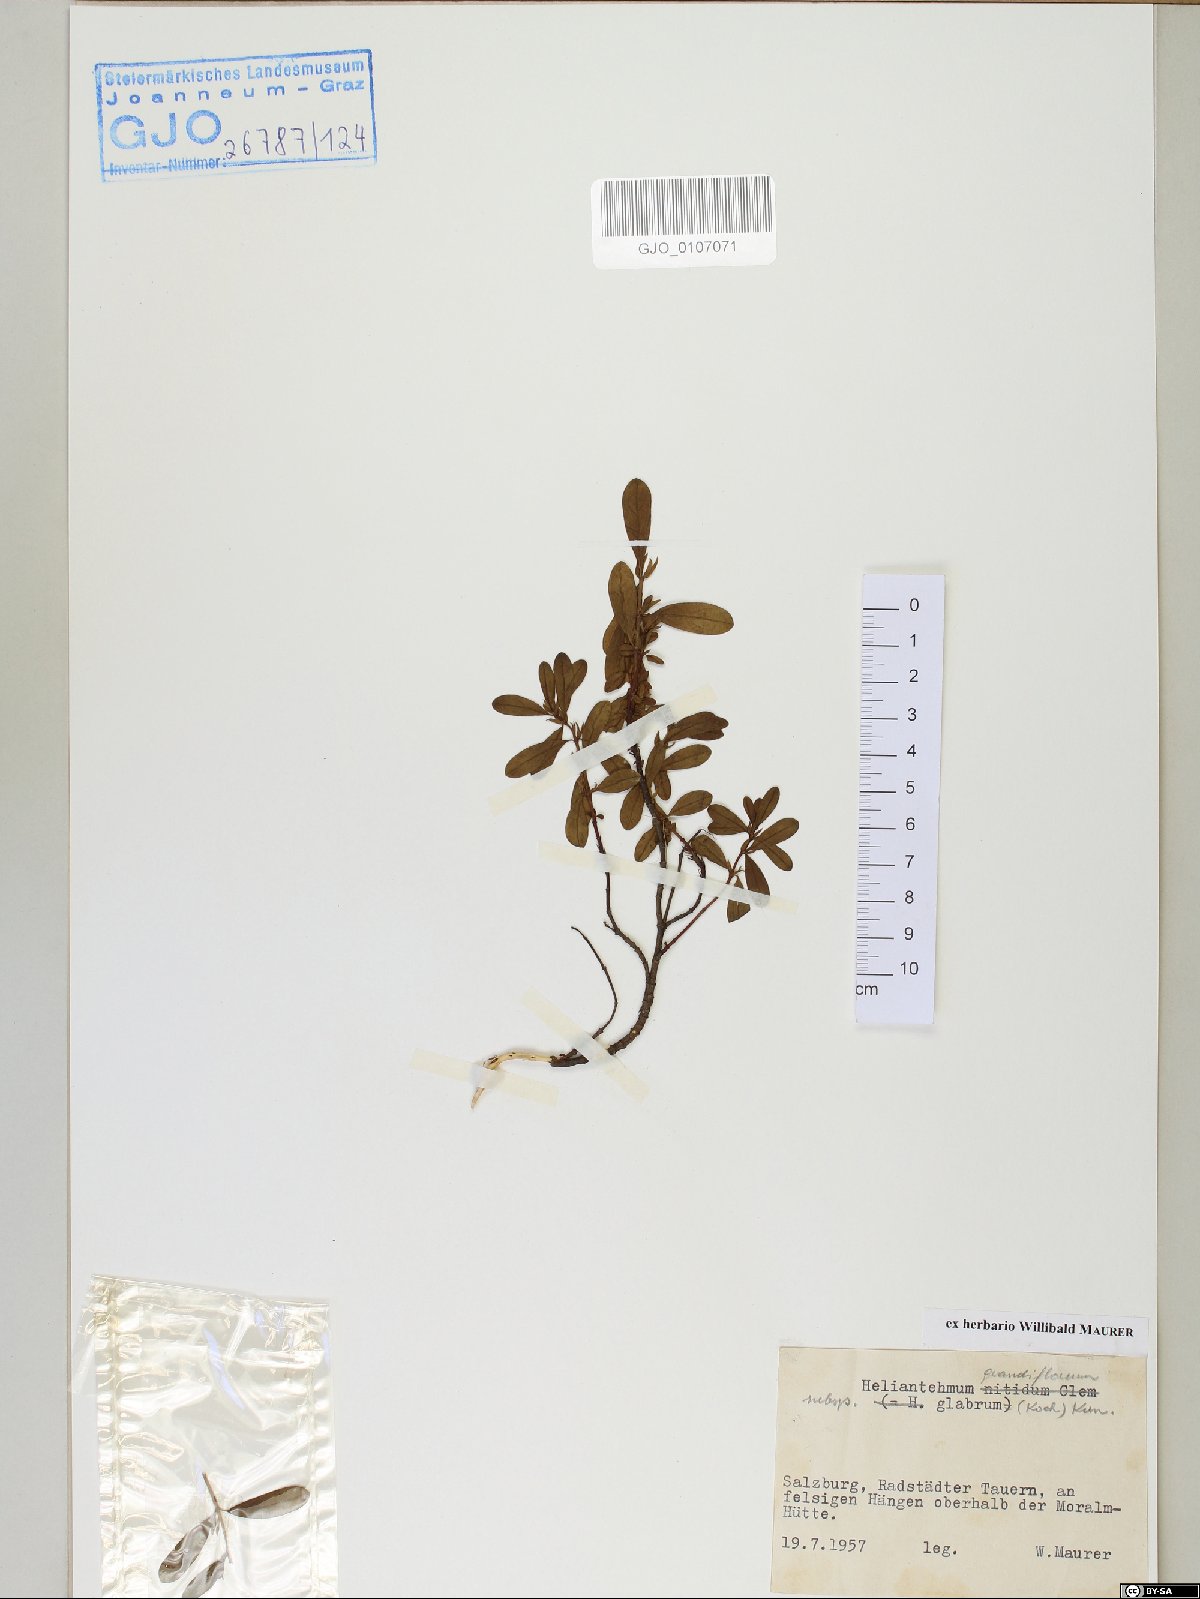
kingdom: Plantae
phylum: Tracheophyta
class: Magnoliopsida
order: Malvales
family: Cistaceae
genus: Helianthemum
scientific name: Helianthemum nummularium
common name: Common rock-rose
